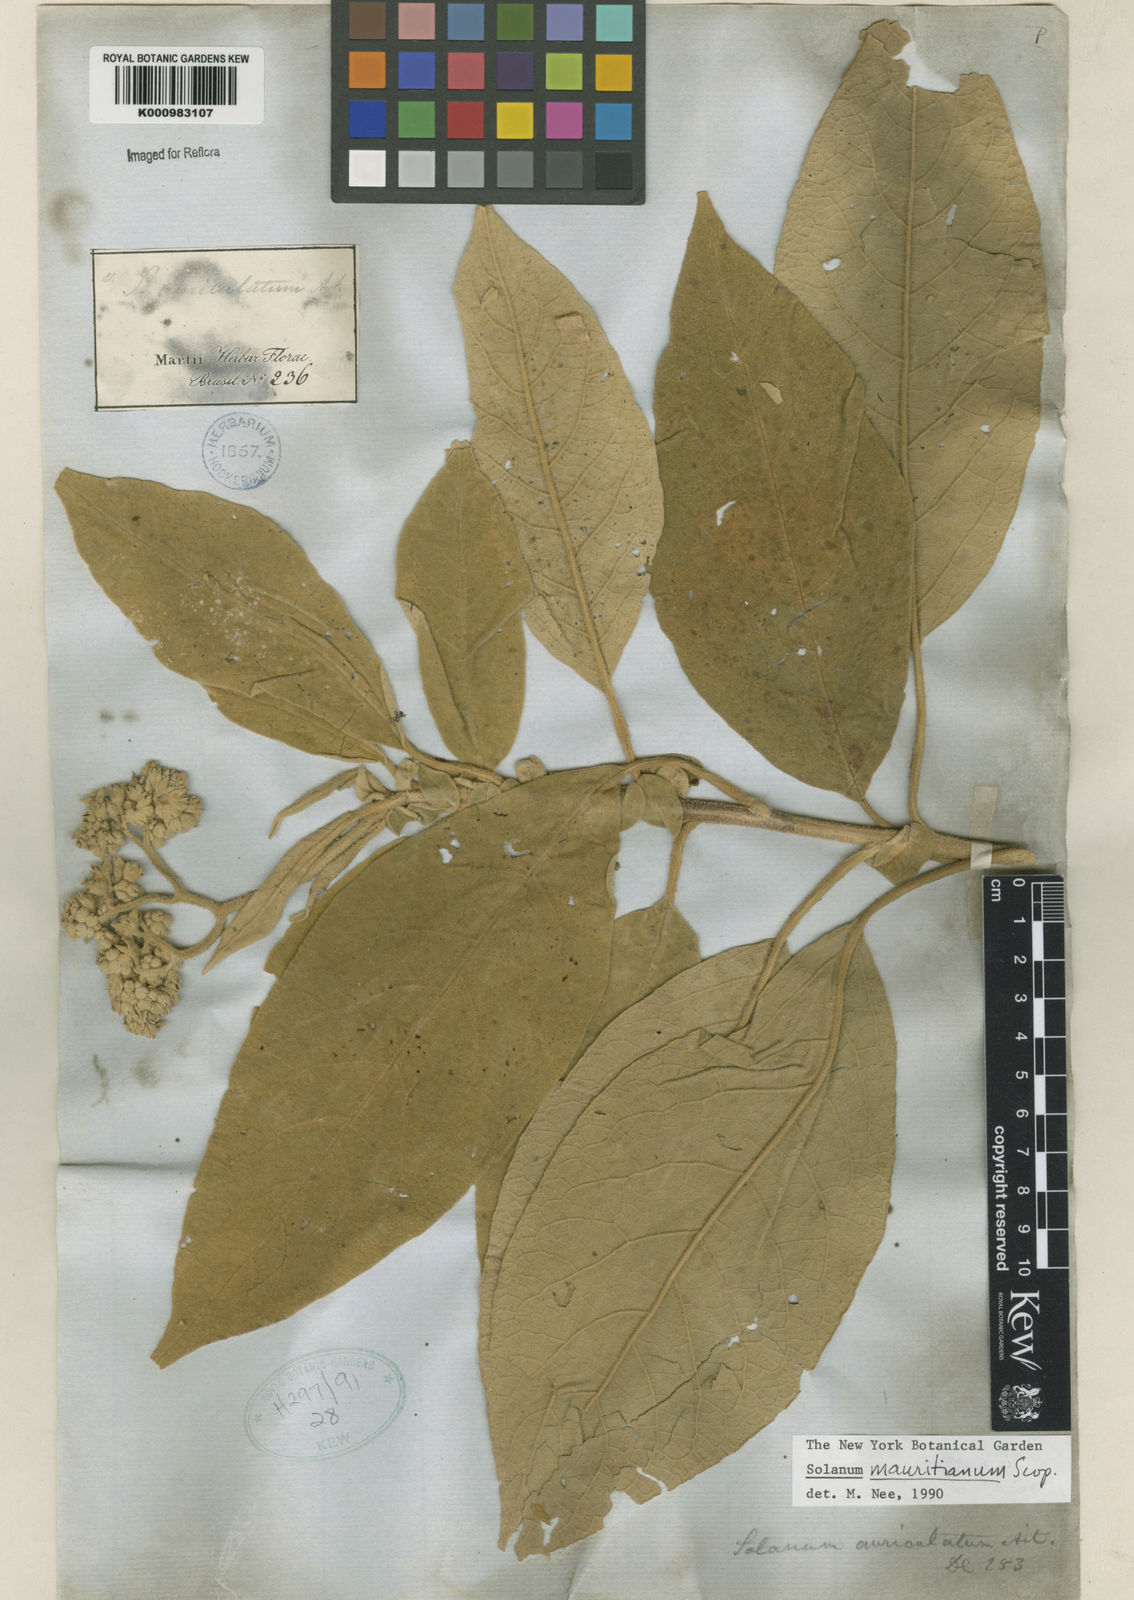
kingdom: Plantae
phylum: Tracheophyta
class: Magnoliopsida
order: Solanales
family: Solanaceae
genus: Solanum
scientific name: Solanum mauritianum
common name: Earleaf nightshade
